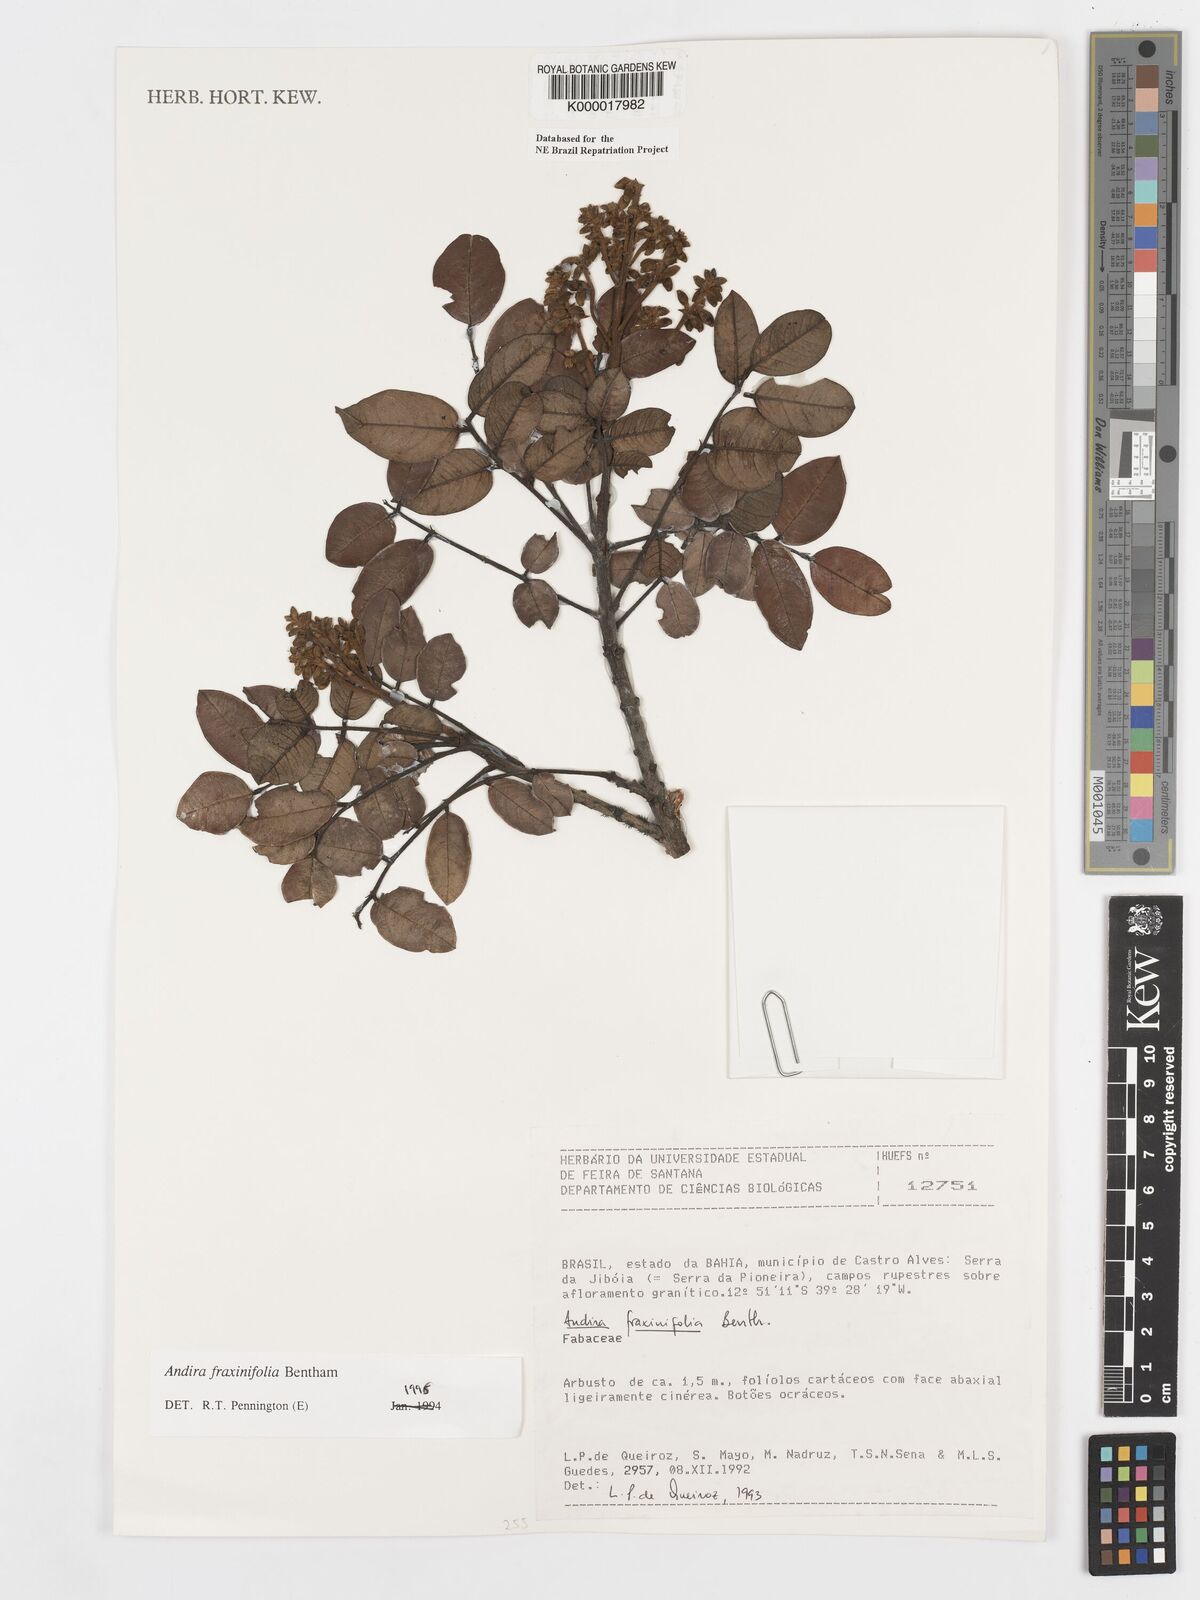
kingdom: Plantae
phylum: Tracheophyta
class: Magnoliopsida
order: Fabales
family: Fabaceae
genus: Andira
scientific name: Andira fraxinifolia
